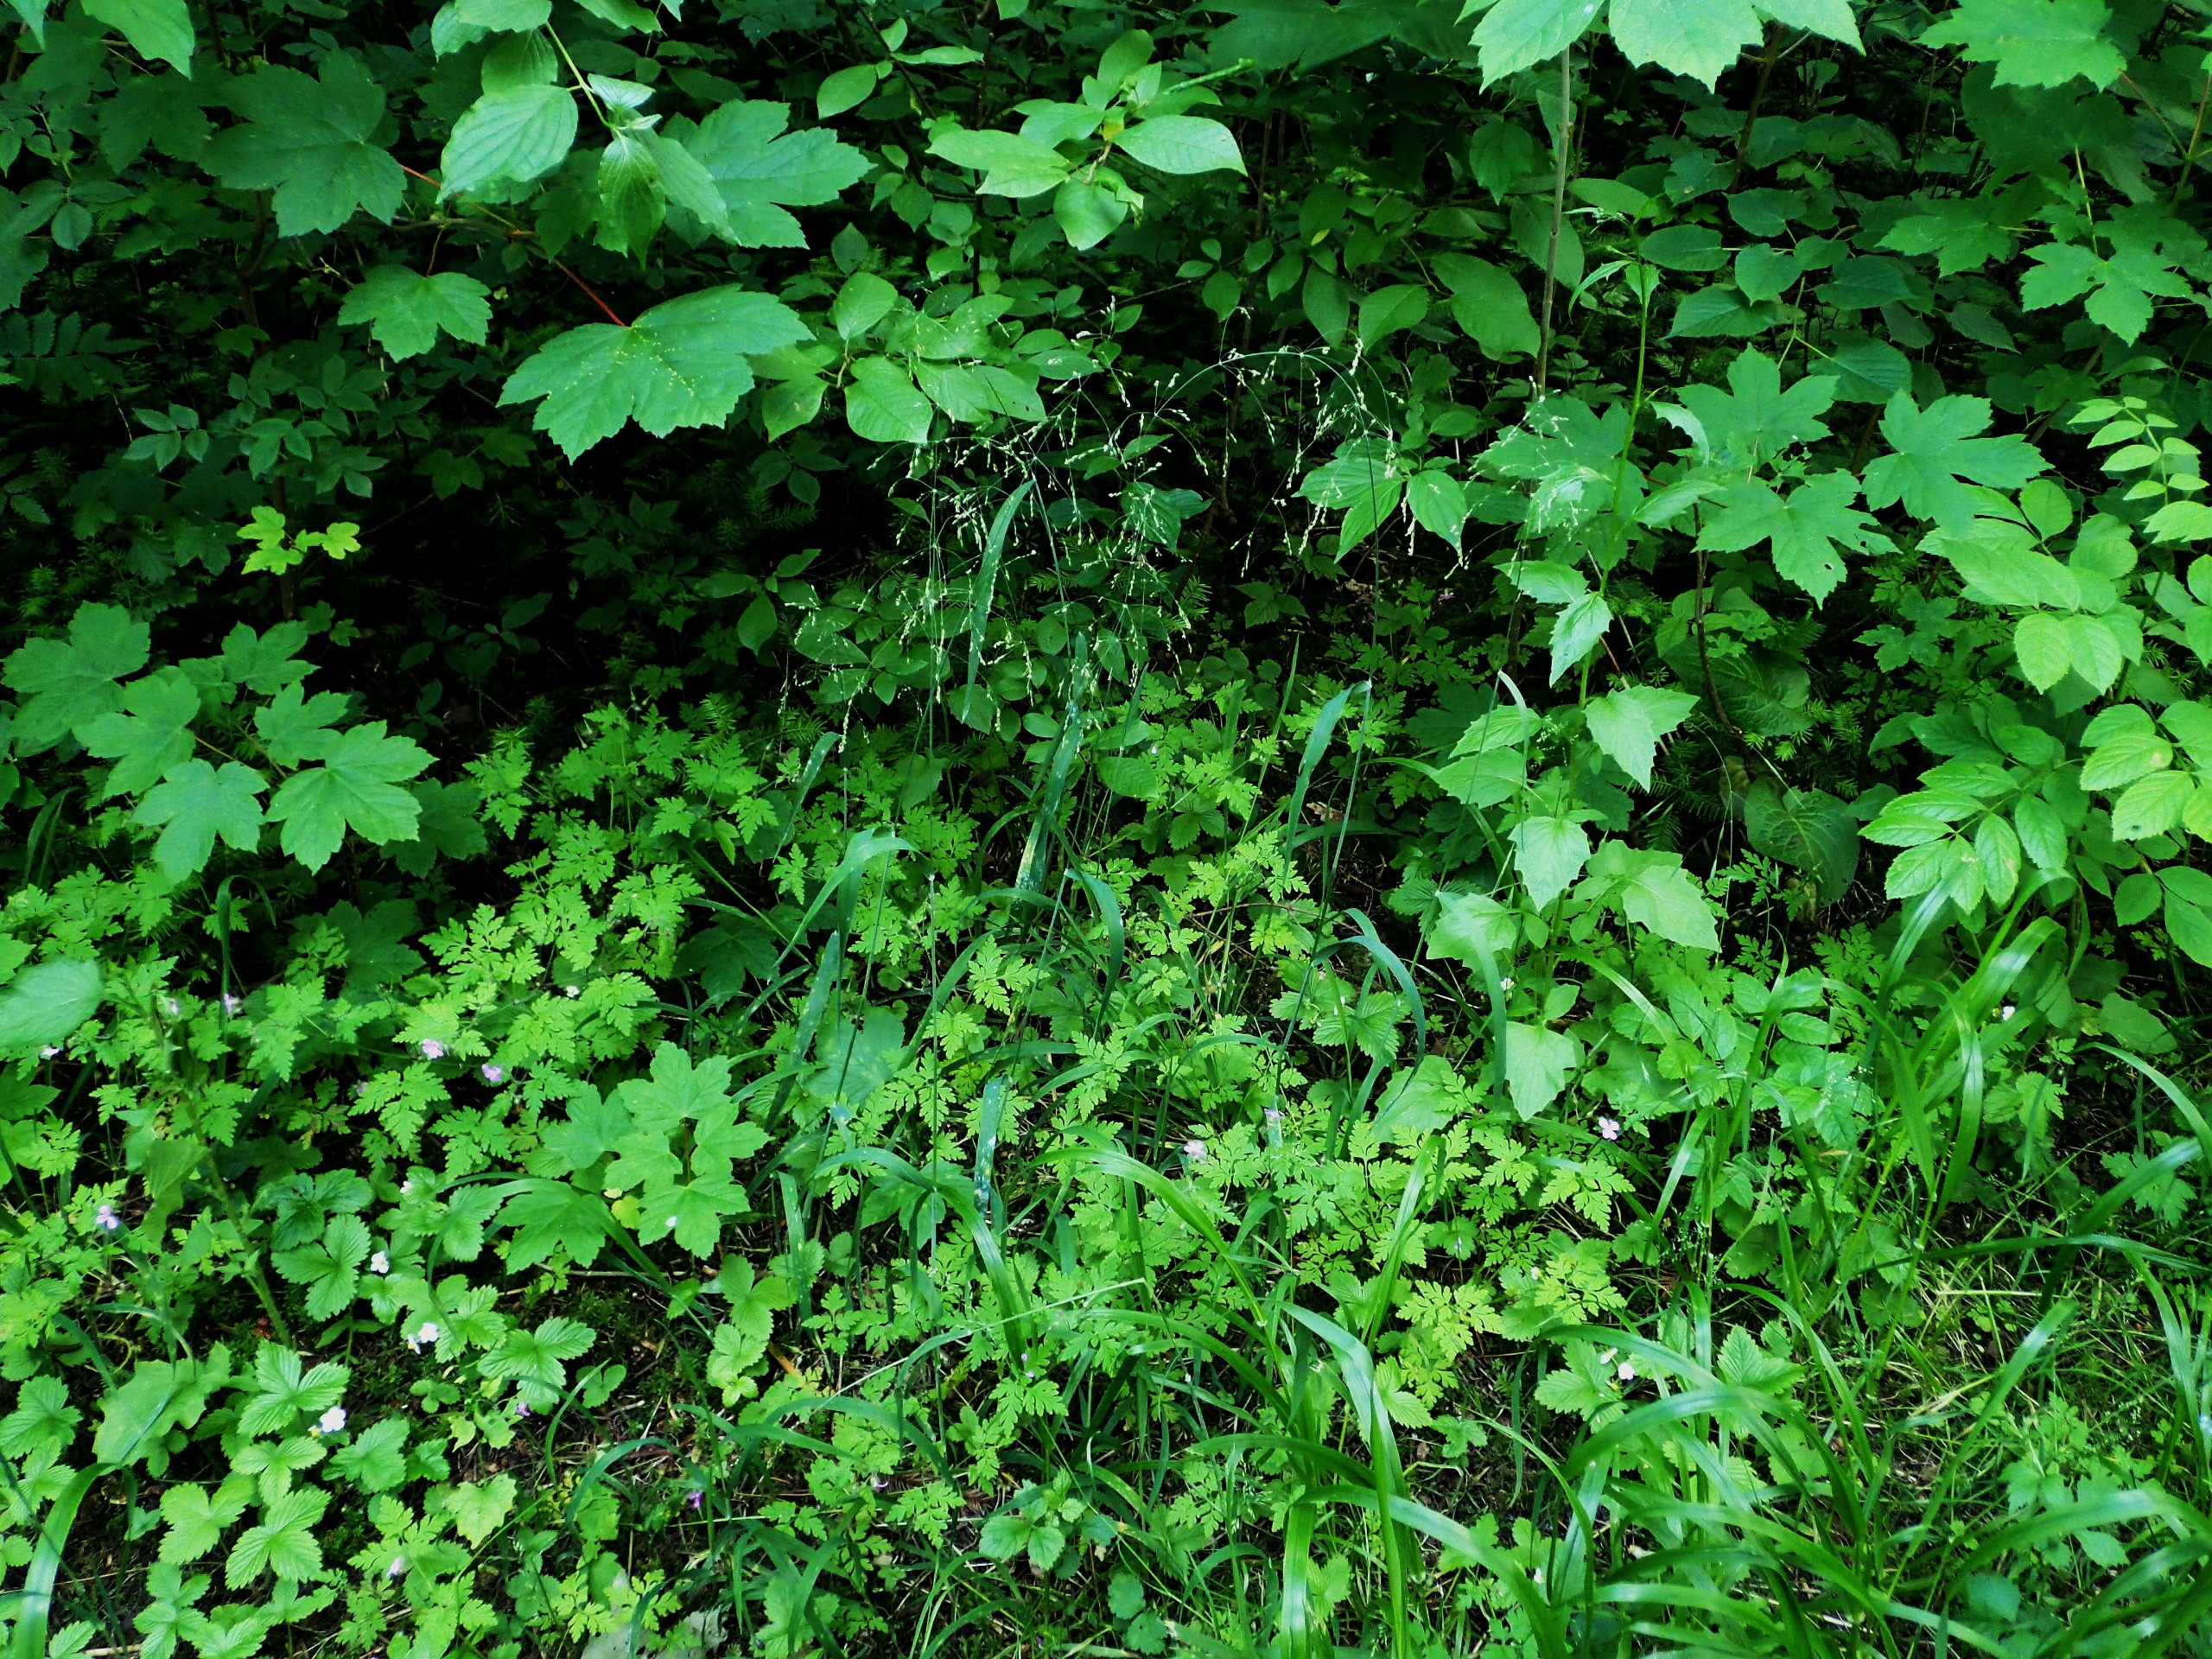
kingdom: Plantae
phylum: Tracheophyta
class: Liliopsida
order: Poales
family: Poaceae
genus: Milium
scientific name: Milium effusum
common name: Miliegræs
